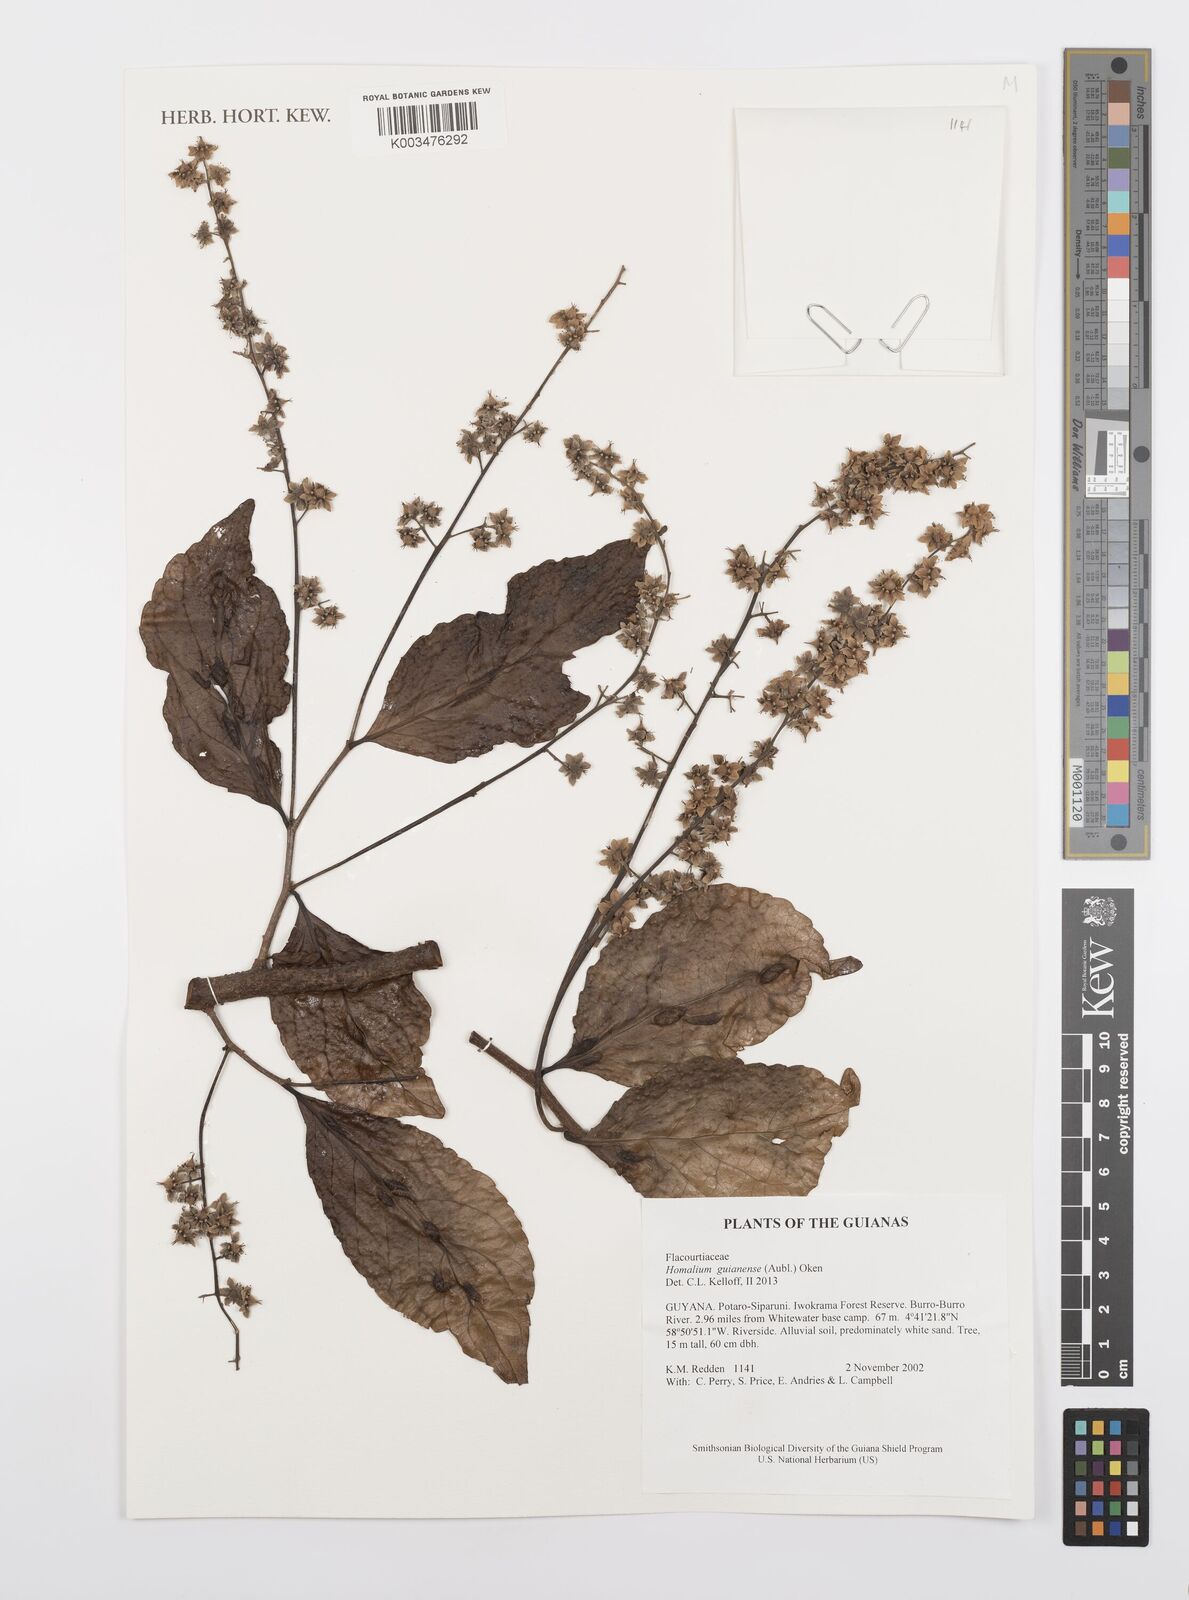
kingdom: Plantae
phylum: Tracheophyta
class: Magnoliopsida
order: Malpighiales
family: Salicaceae
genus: Homalium
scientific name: Homalium guianense
